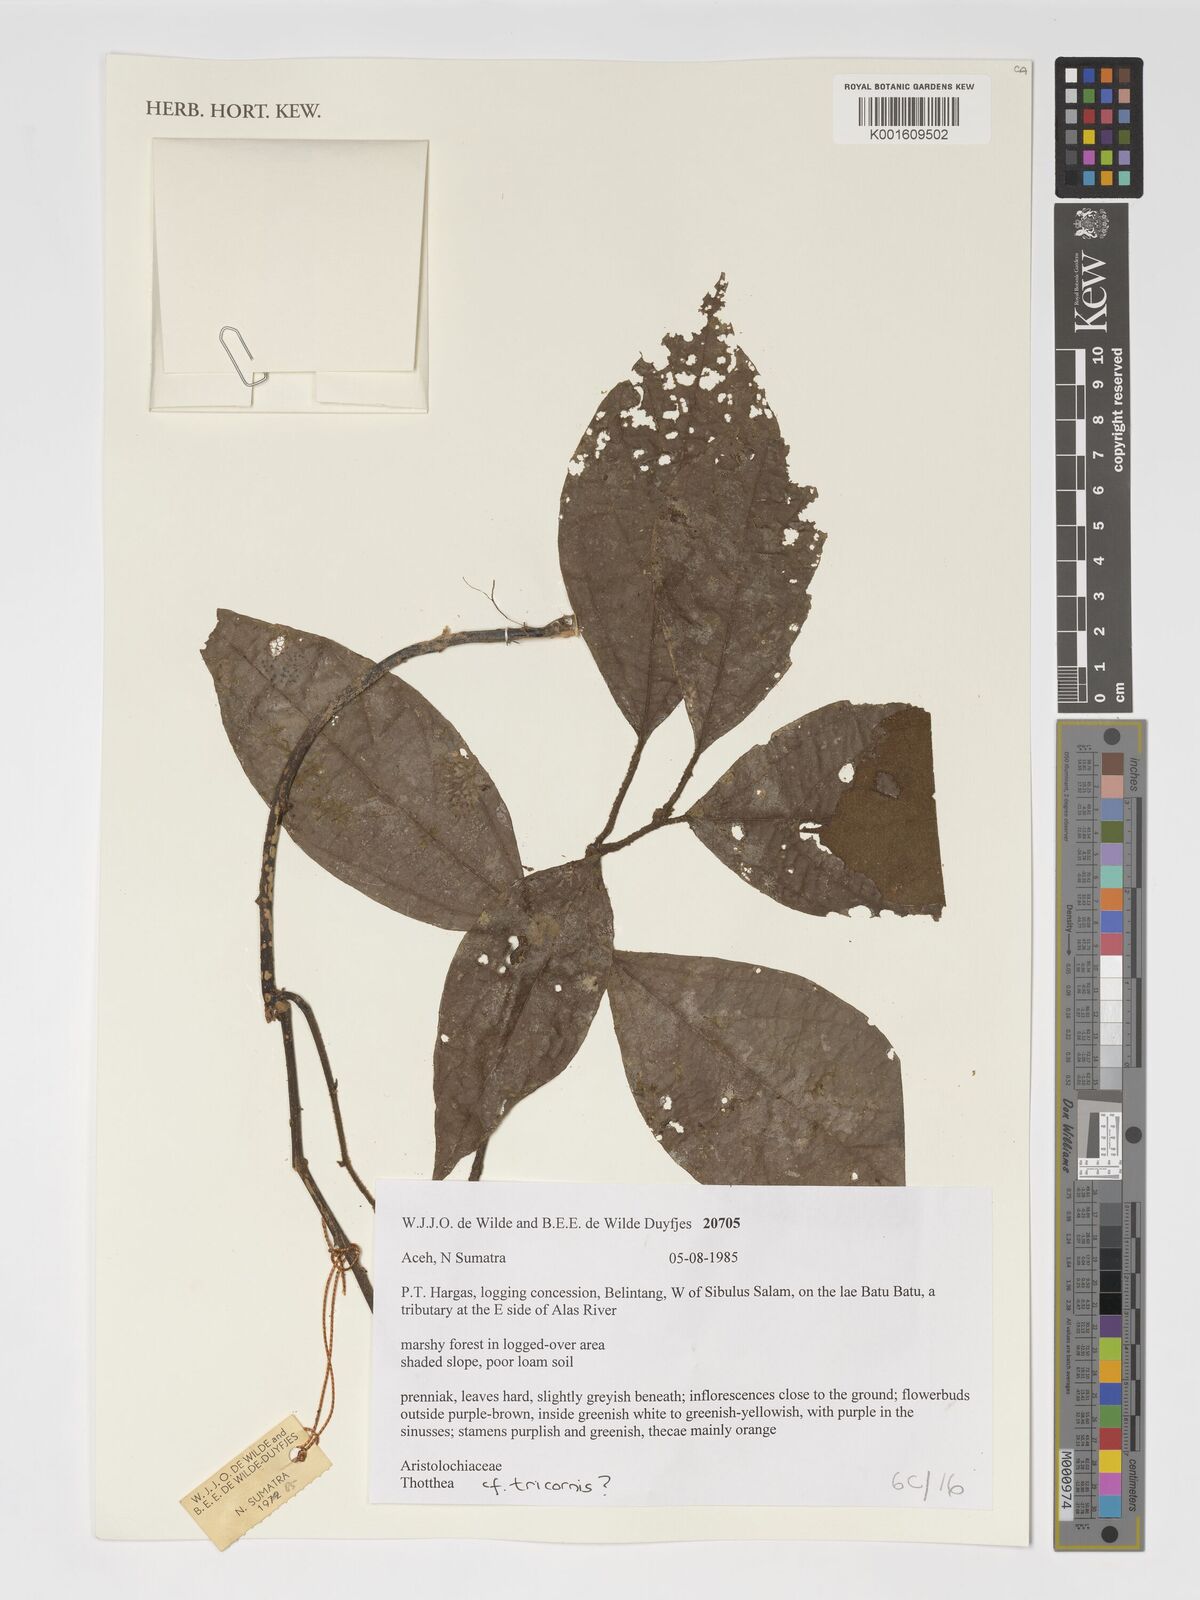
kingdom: Plantae
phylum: Tracheophyta
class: Magnoliopsida
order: Piperales
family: Aristolochiaceae
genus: Thottea
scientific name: Thottea tricornis
